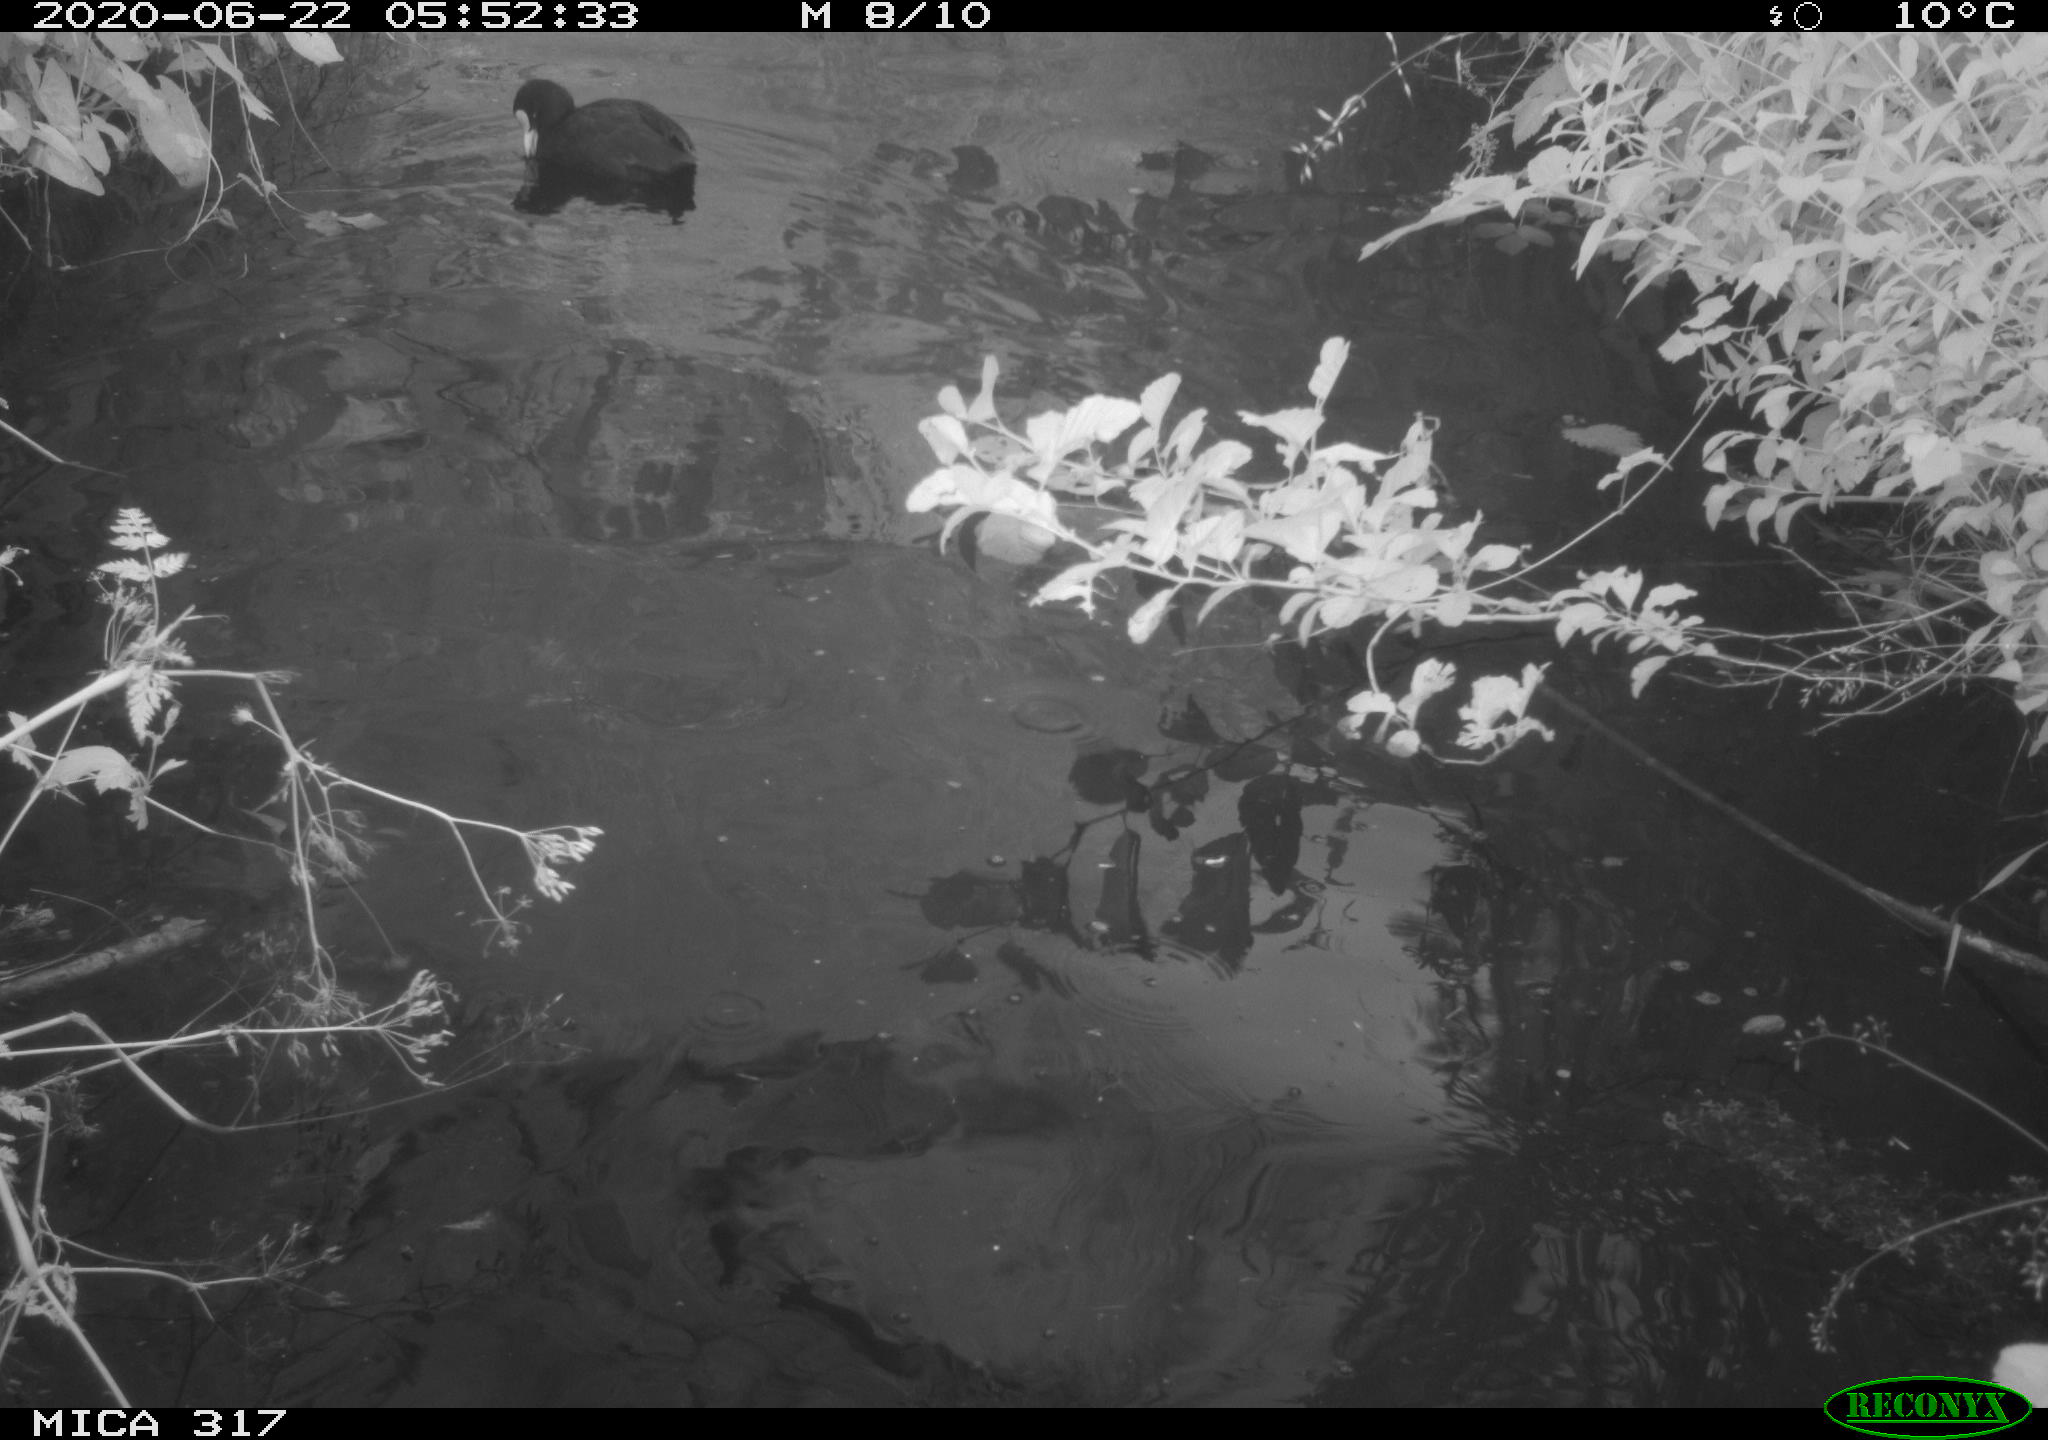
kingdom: Animalia
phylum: Chordata
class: Aves
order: Gruiformes
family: Rallidae
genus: Fulica
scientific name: Fulica atra
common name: Eurasian coot
